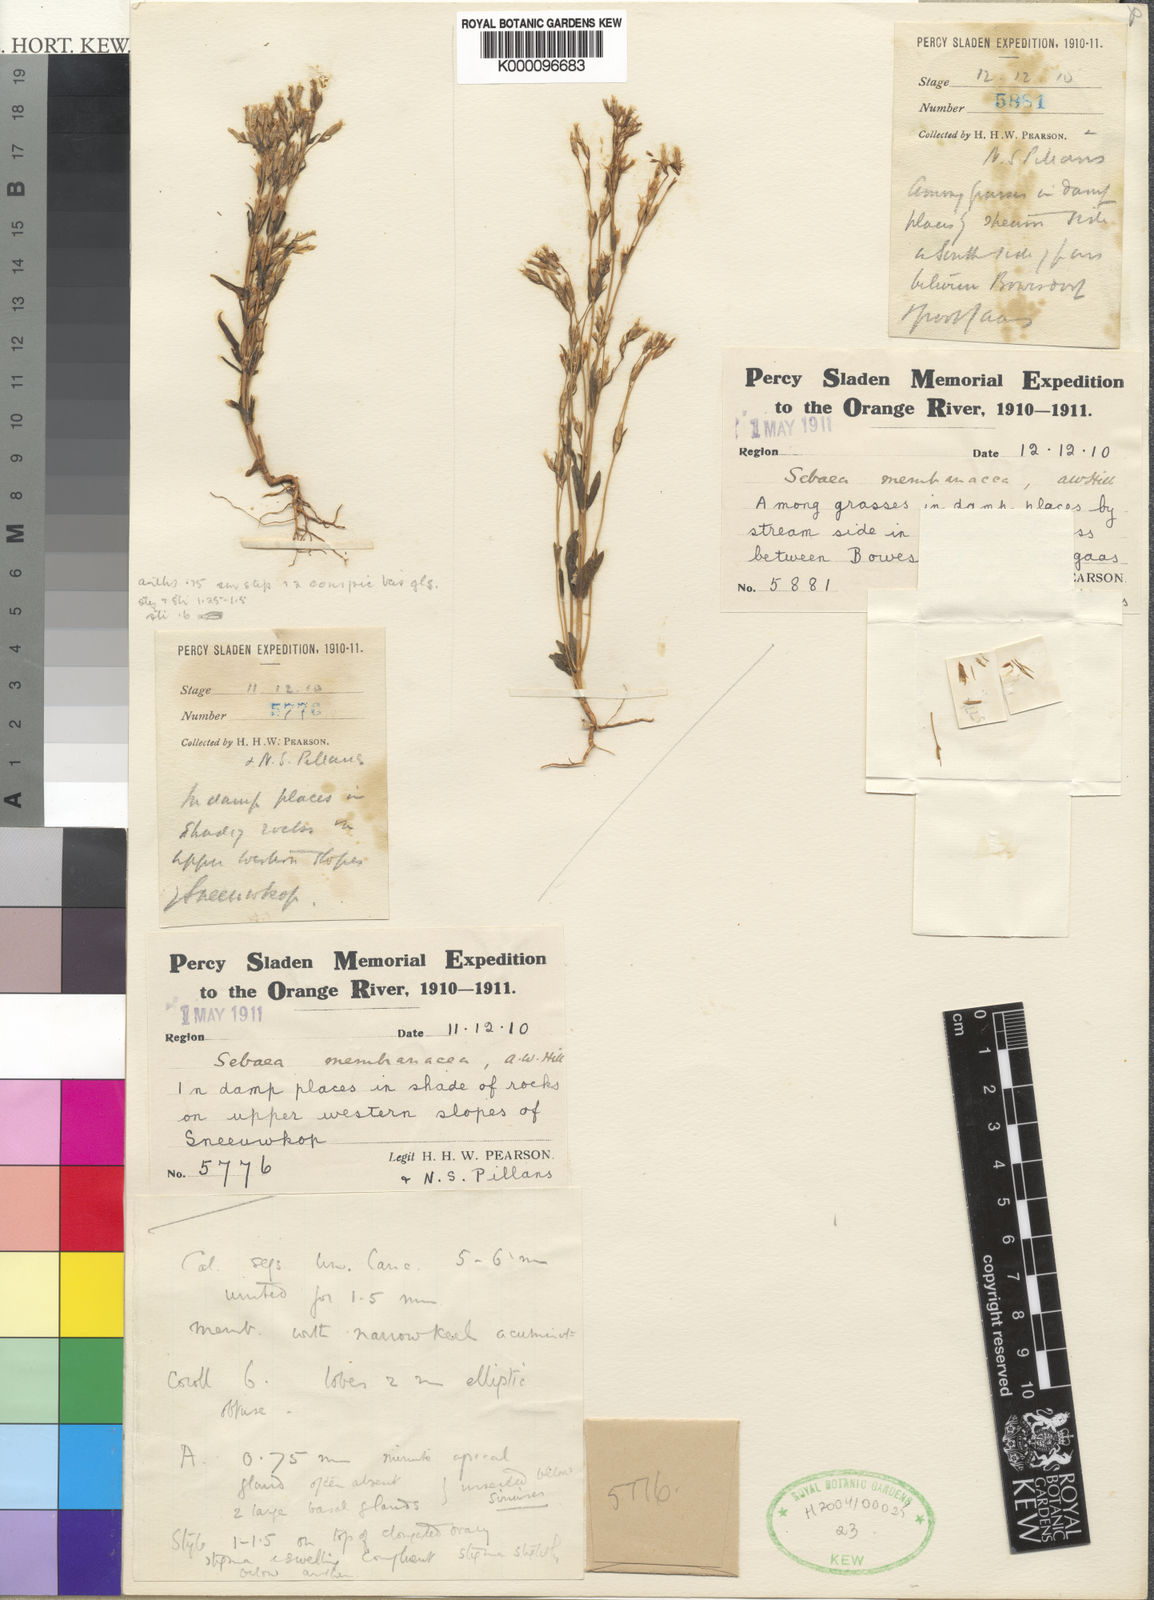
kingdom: Plantae
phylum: Tracheophyta
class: Magnoliopsida
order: Gentianales
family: Gentianaceae
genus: Sebaea
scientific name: Sebaea
